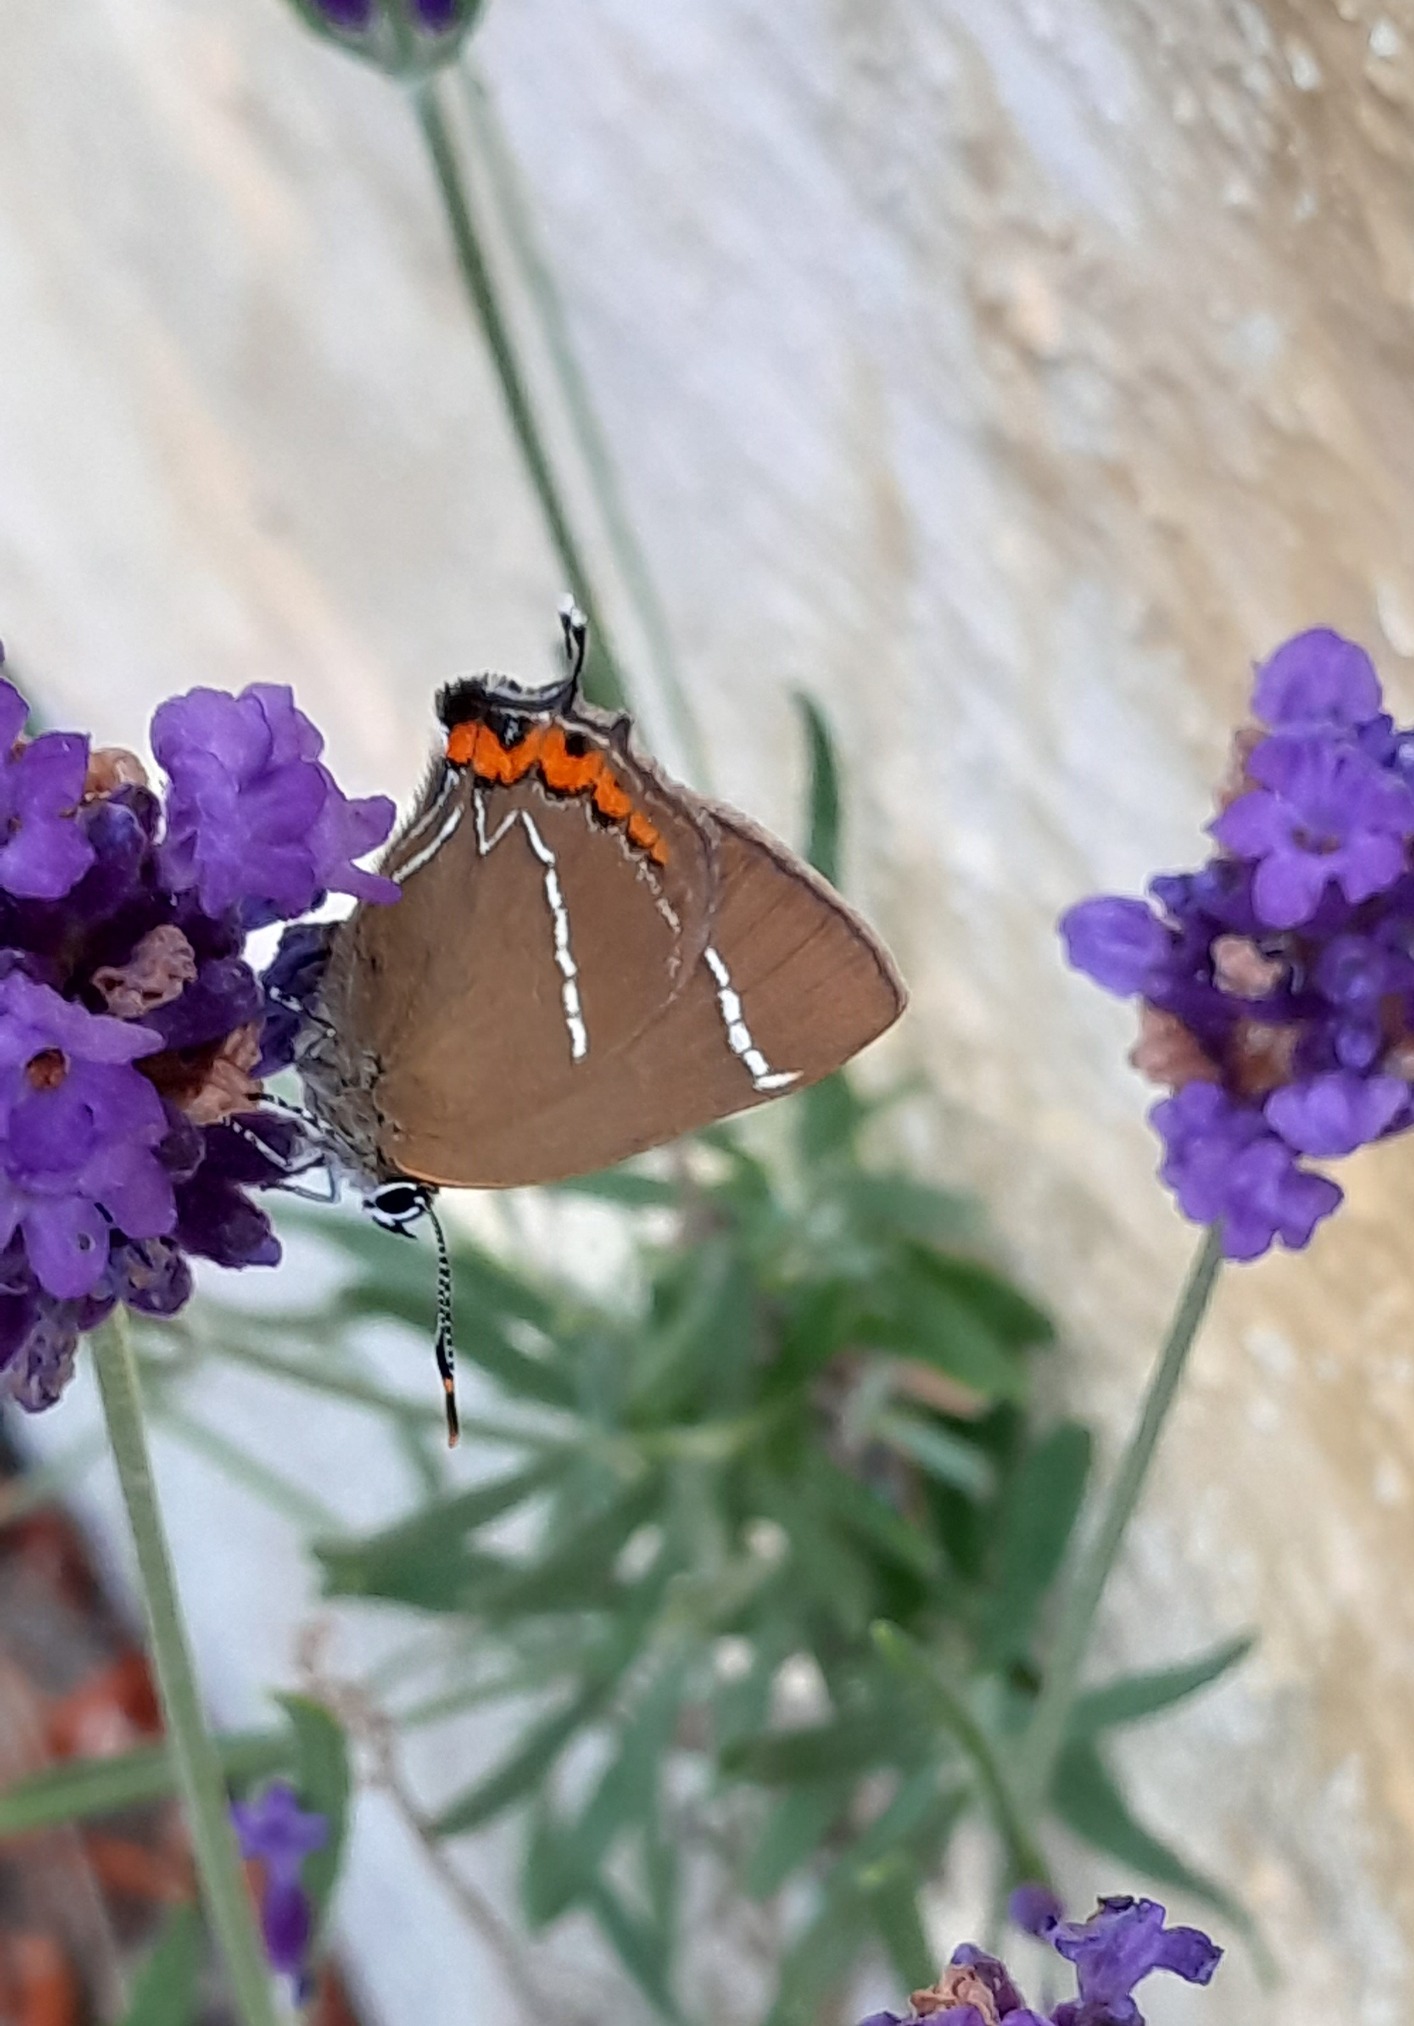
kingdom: Animalia
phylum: Arthropoda
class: Insecta
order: Lepidoptera
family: Lycaenidae
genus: Satyrium
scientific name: Satyrium w-album
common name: Det hvide W
